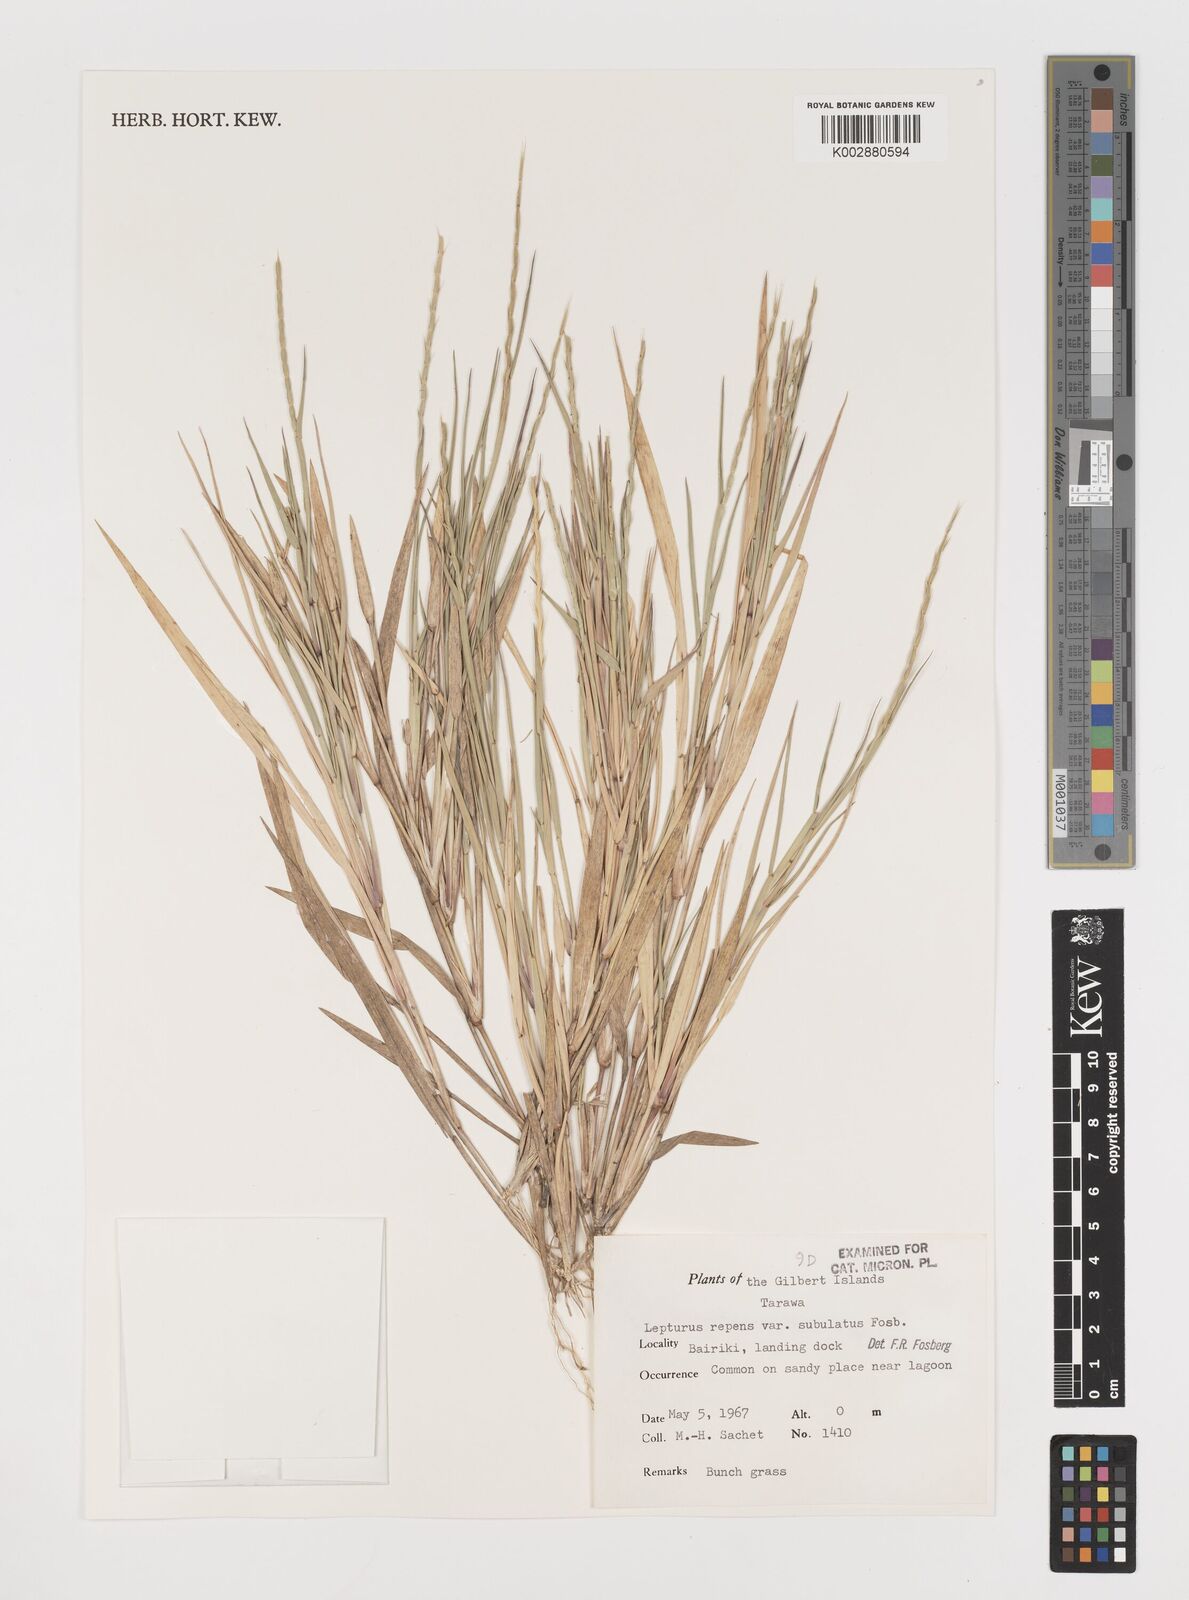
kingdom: Plantae
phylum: Tracheophyta
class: Liliopsida
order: Poales
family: Poaceae
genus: Lepturus
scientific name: Lepturus repens
